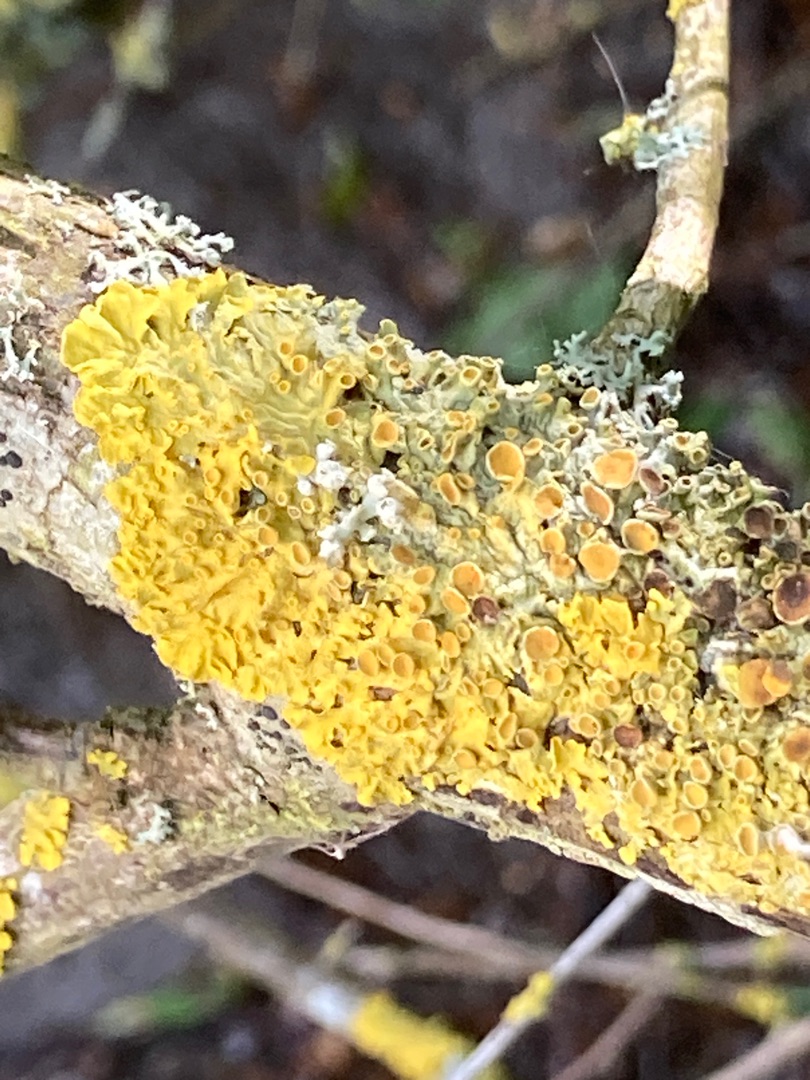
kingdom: Fungi
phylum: Ascomycota
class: Lecanoromycetes
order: Teloschistales
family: Teloschistaceae
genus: Xanthoria
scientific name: Xanthoria parietina
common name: Almindelig væggelav
